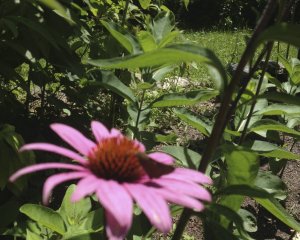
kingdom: Animalia
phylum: Arthropoda
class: Insecta
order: Lepidoptera
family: Hesperiidae
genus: Euphyes
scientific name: Euphyes vestris
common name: Dun Skipper
